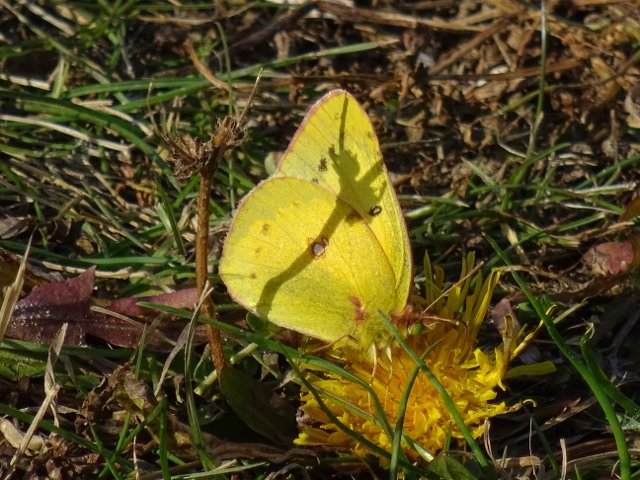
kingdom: Animalia
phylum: Arthropoda
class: Insecta
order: Lepidoptera
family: Pieridae
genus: Colias
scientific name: Colias philodice
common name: Clouded Sulphur
